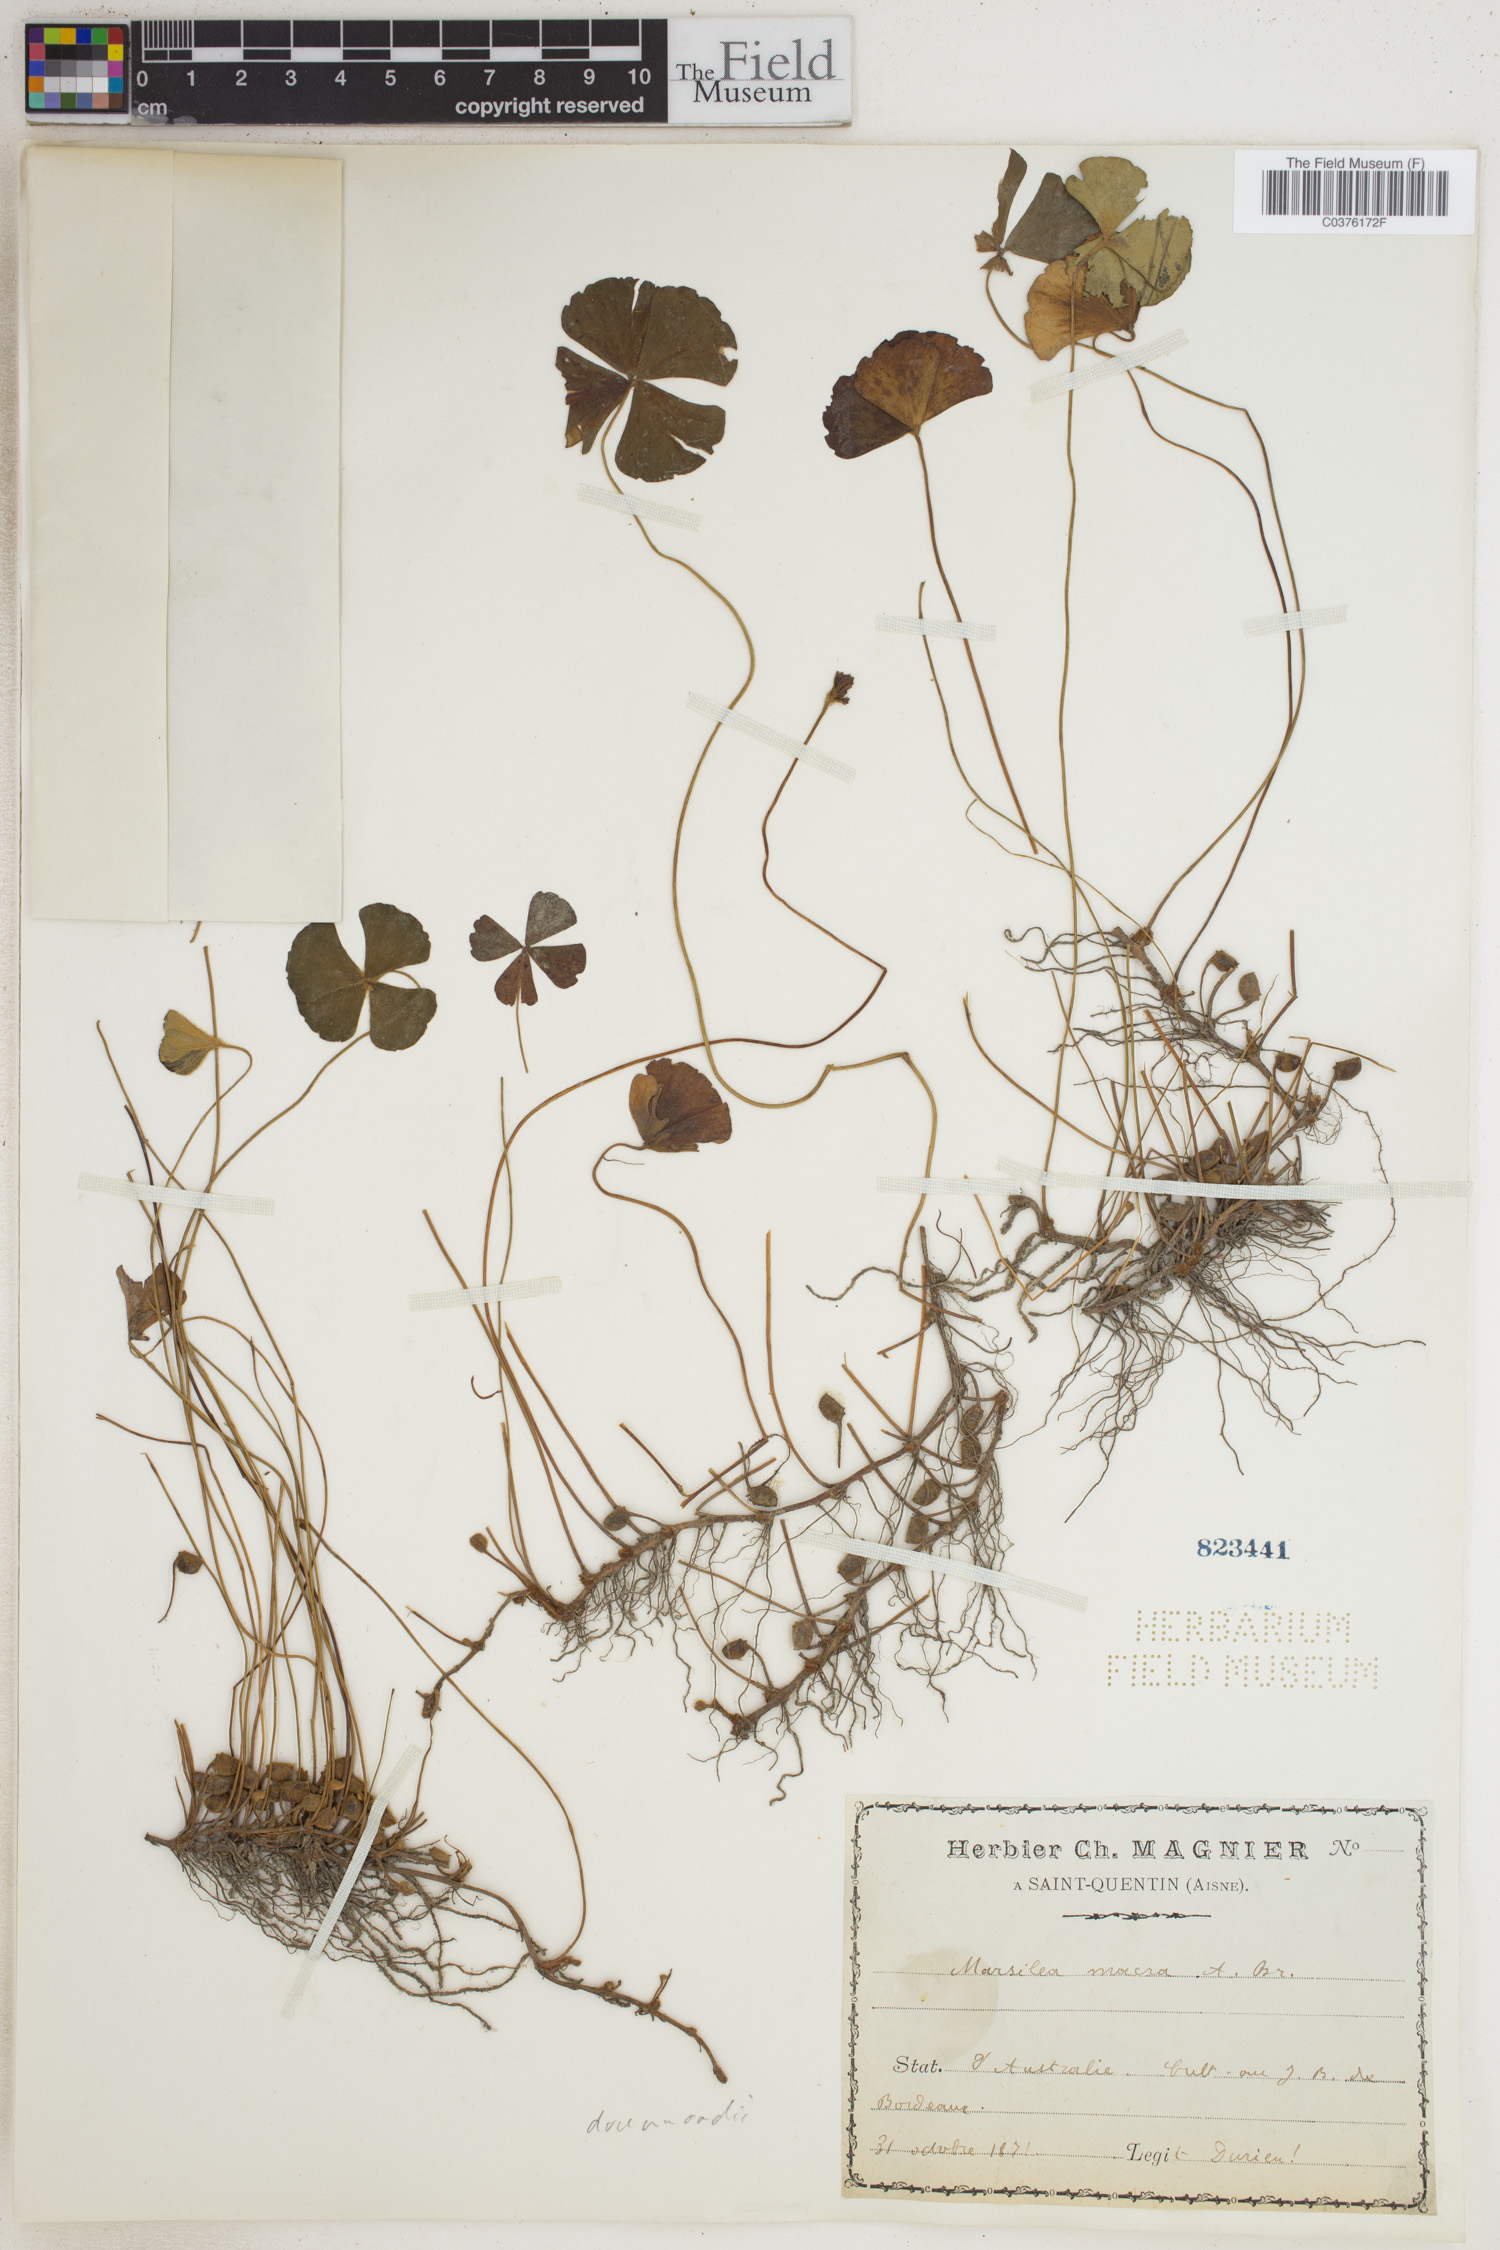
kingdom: Plantae
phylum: Tracheophyta
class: Polypodiopsida
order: Salviniales
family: Marsileaceae
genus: Marsilea
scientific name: Marsilea drummondii
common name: Nardoo
